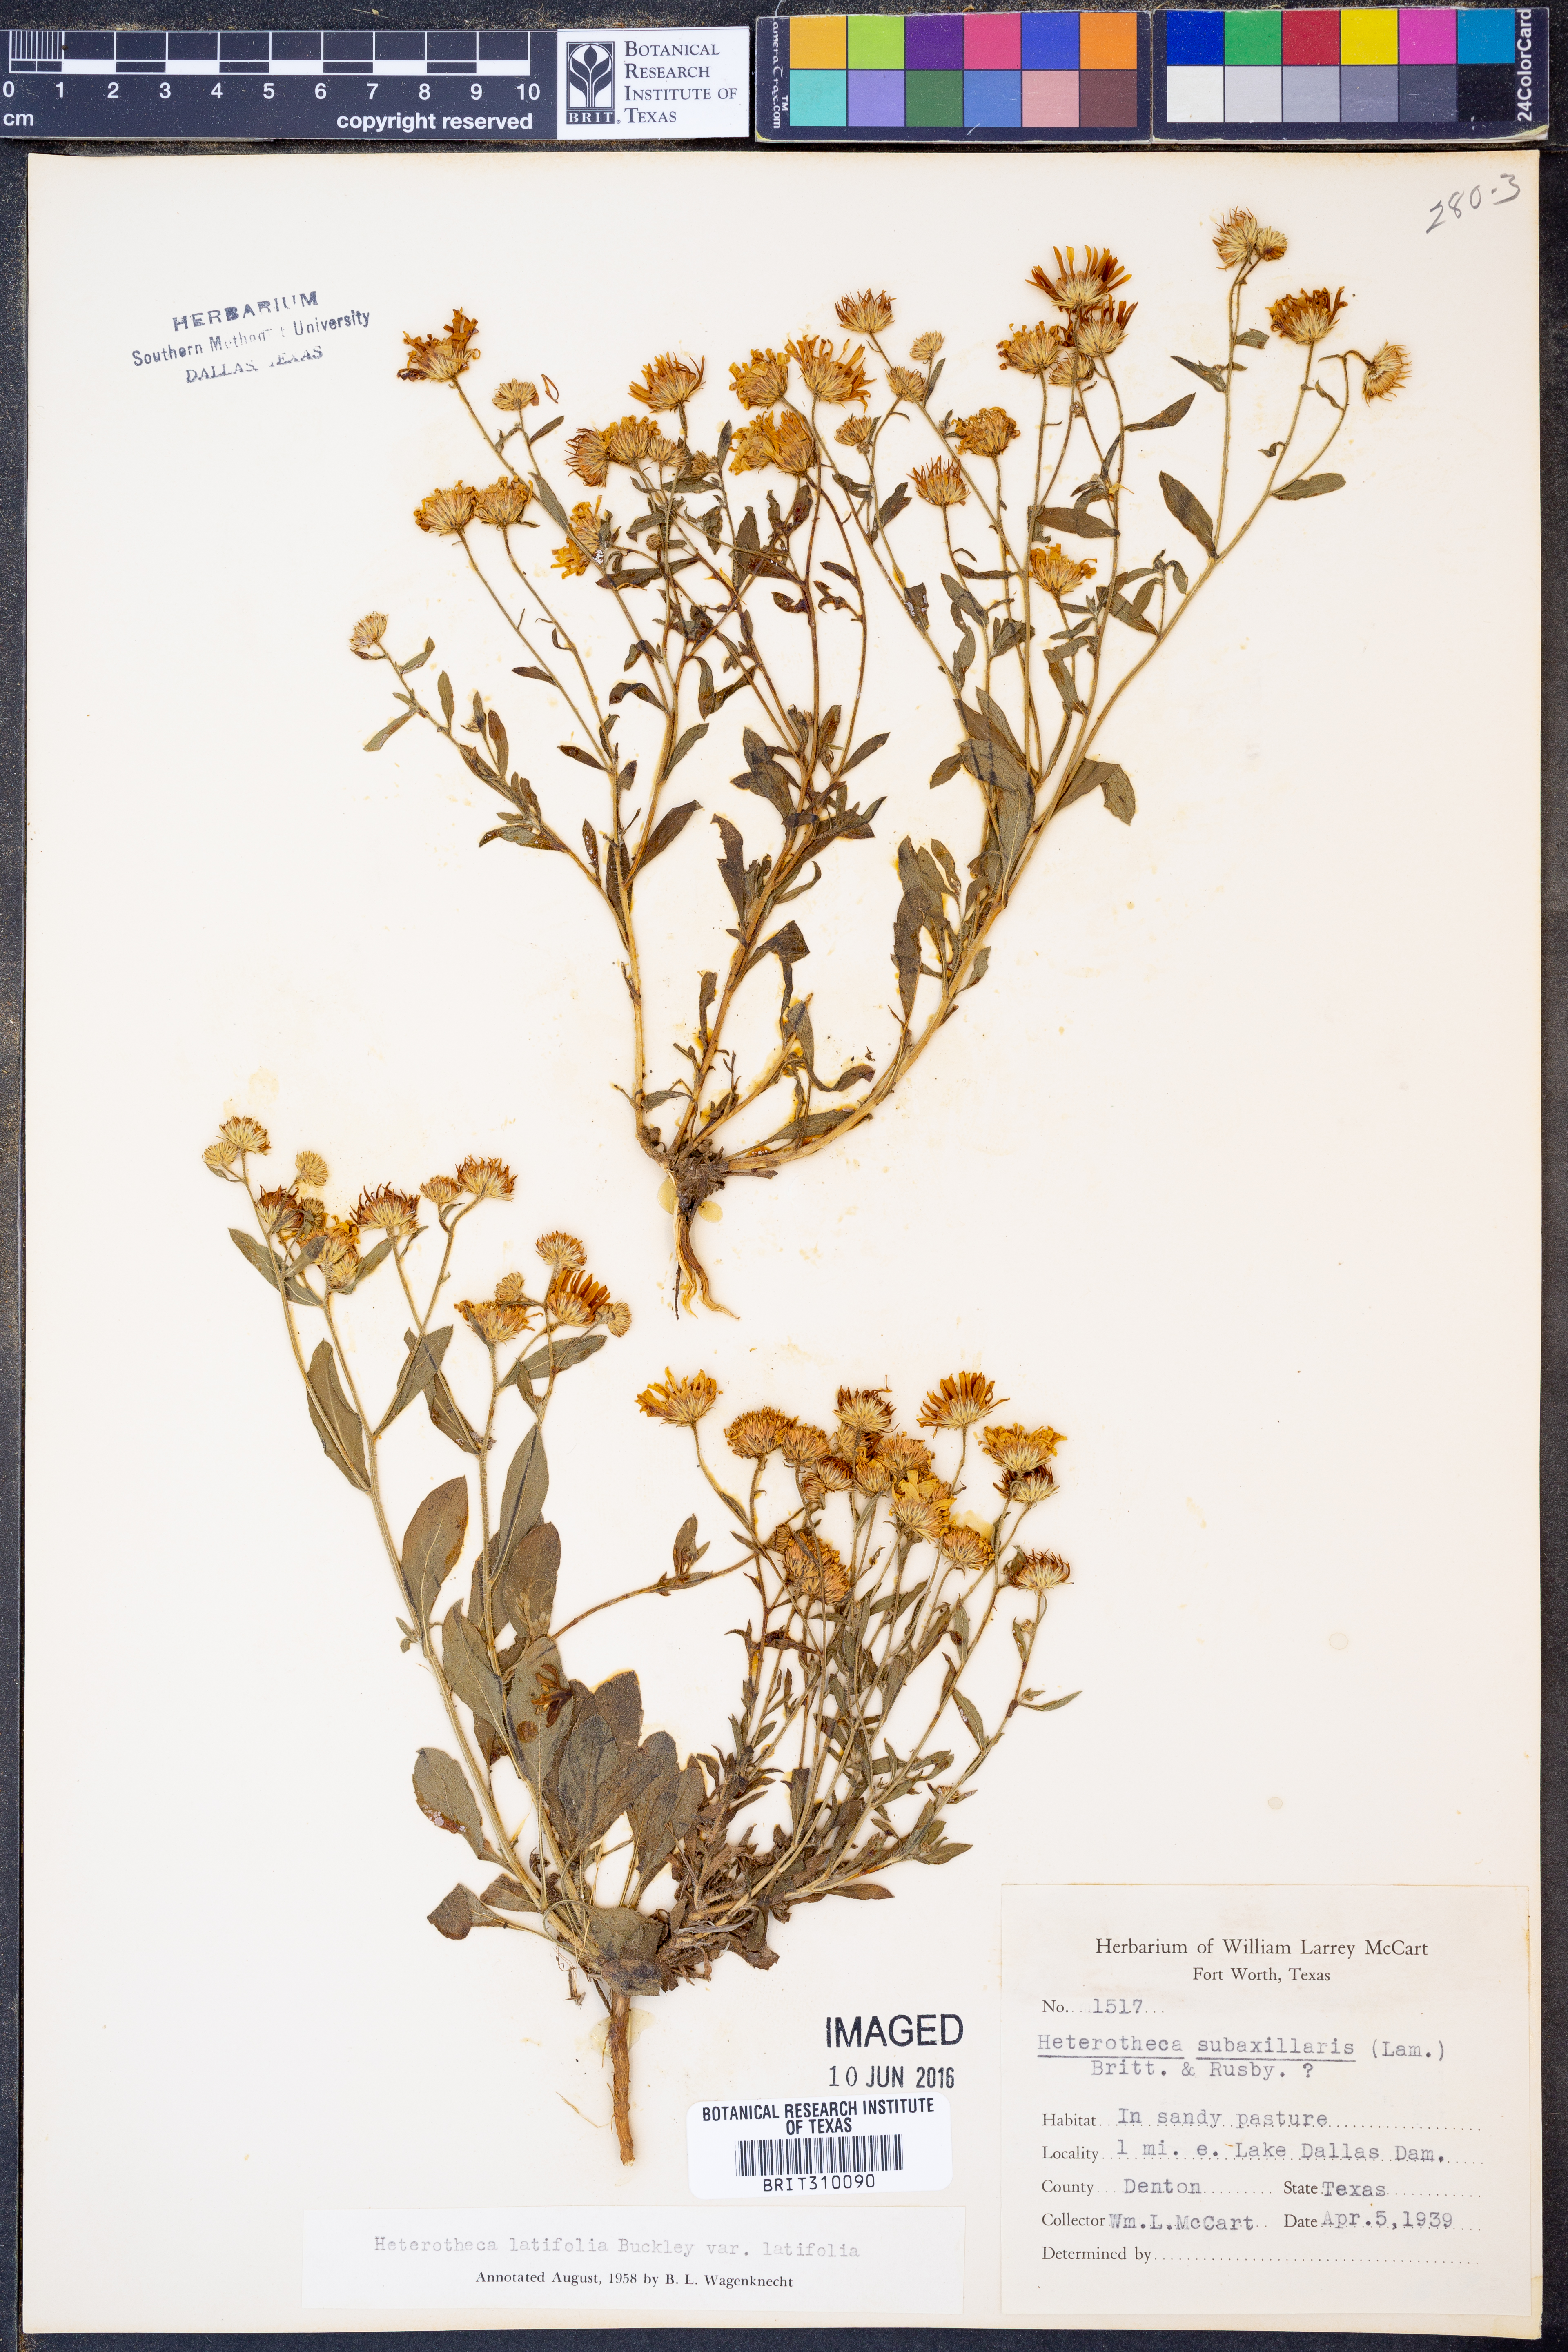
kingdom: Plantae
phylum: Tracheophyta
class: Magnoliopsida
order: Asterales
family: Asteraceae
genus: Heterotheca
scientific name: Heterotheca subaxillaris
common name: Camphorweed
